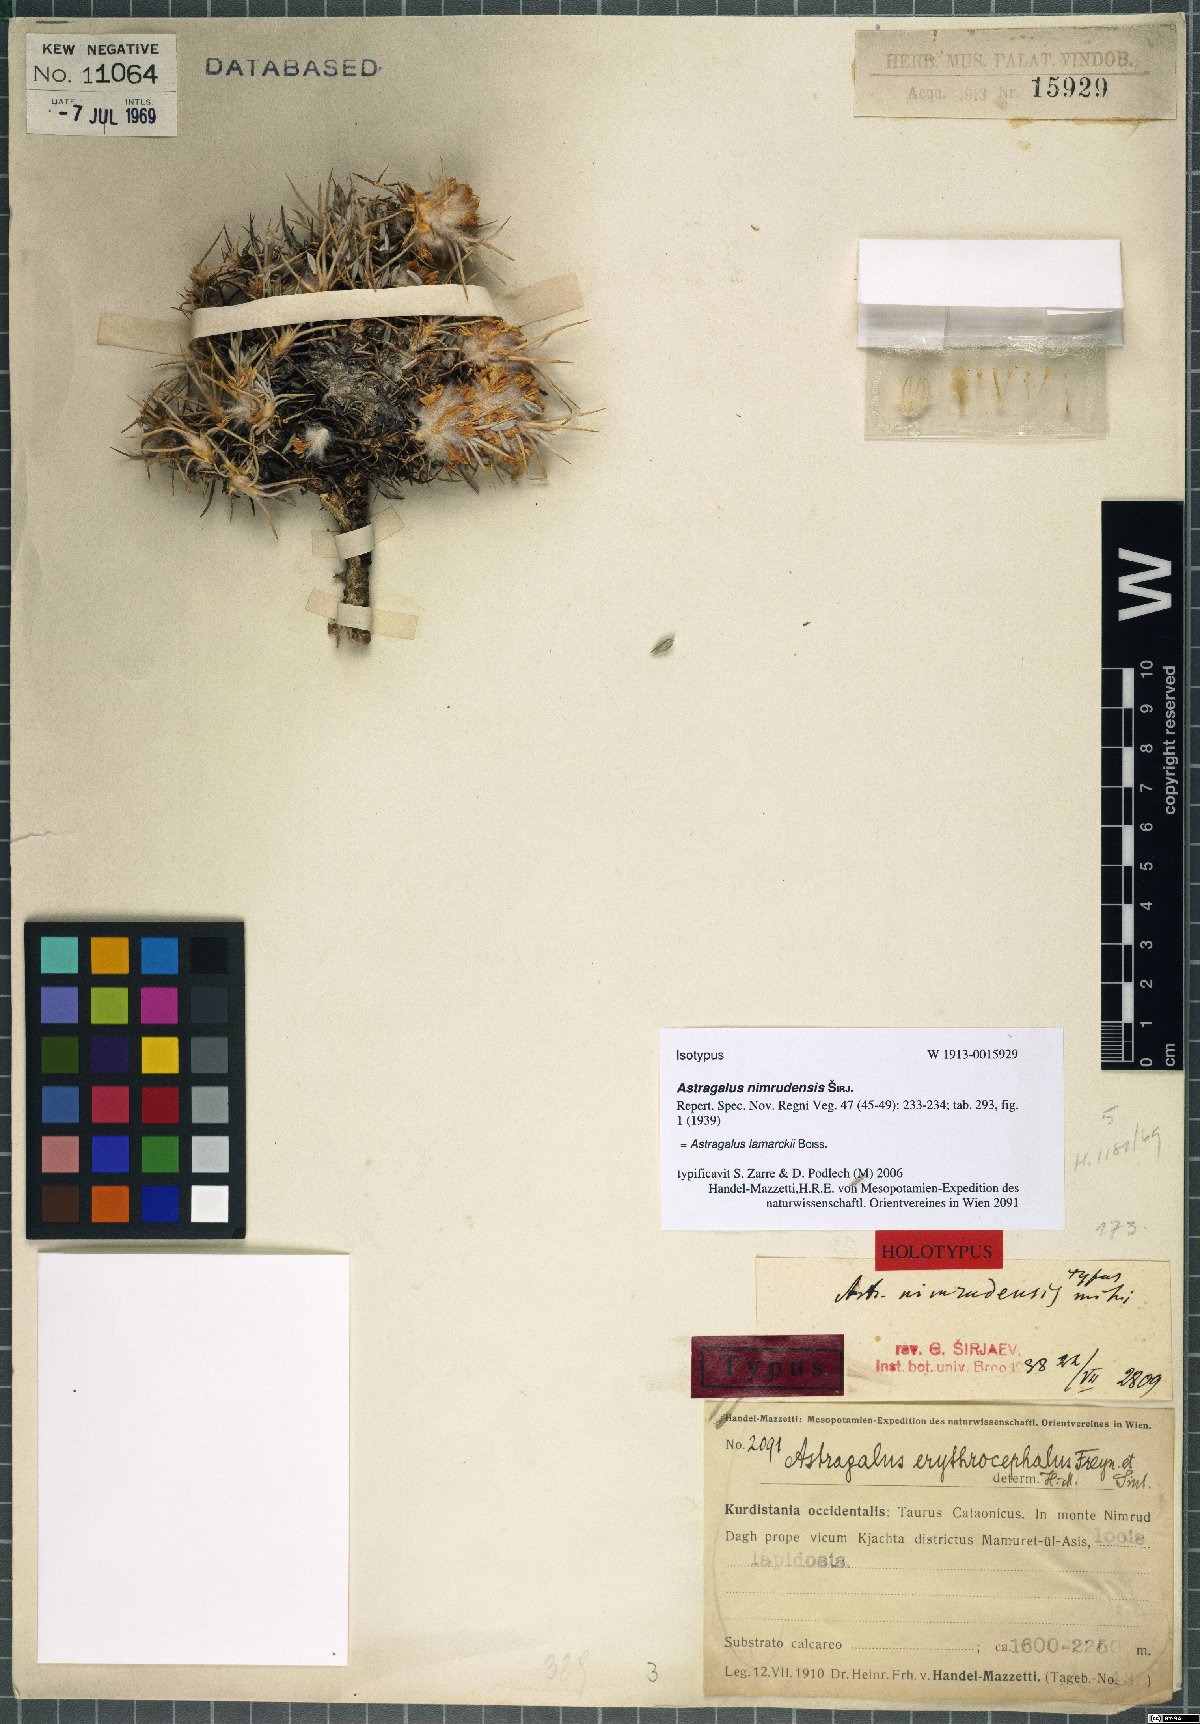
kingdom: Plantae
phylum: Tracheophyta
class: Magnoliopsida
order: Fabales
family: Fabaceae
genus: Astragalus
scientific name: Astragalus lamarckii
